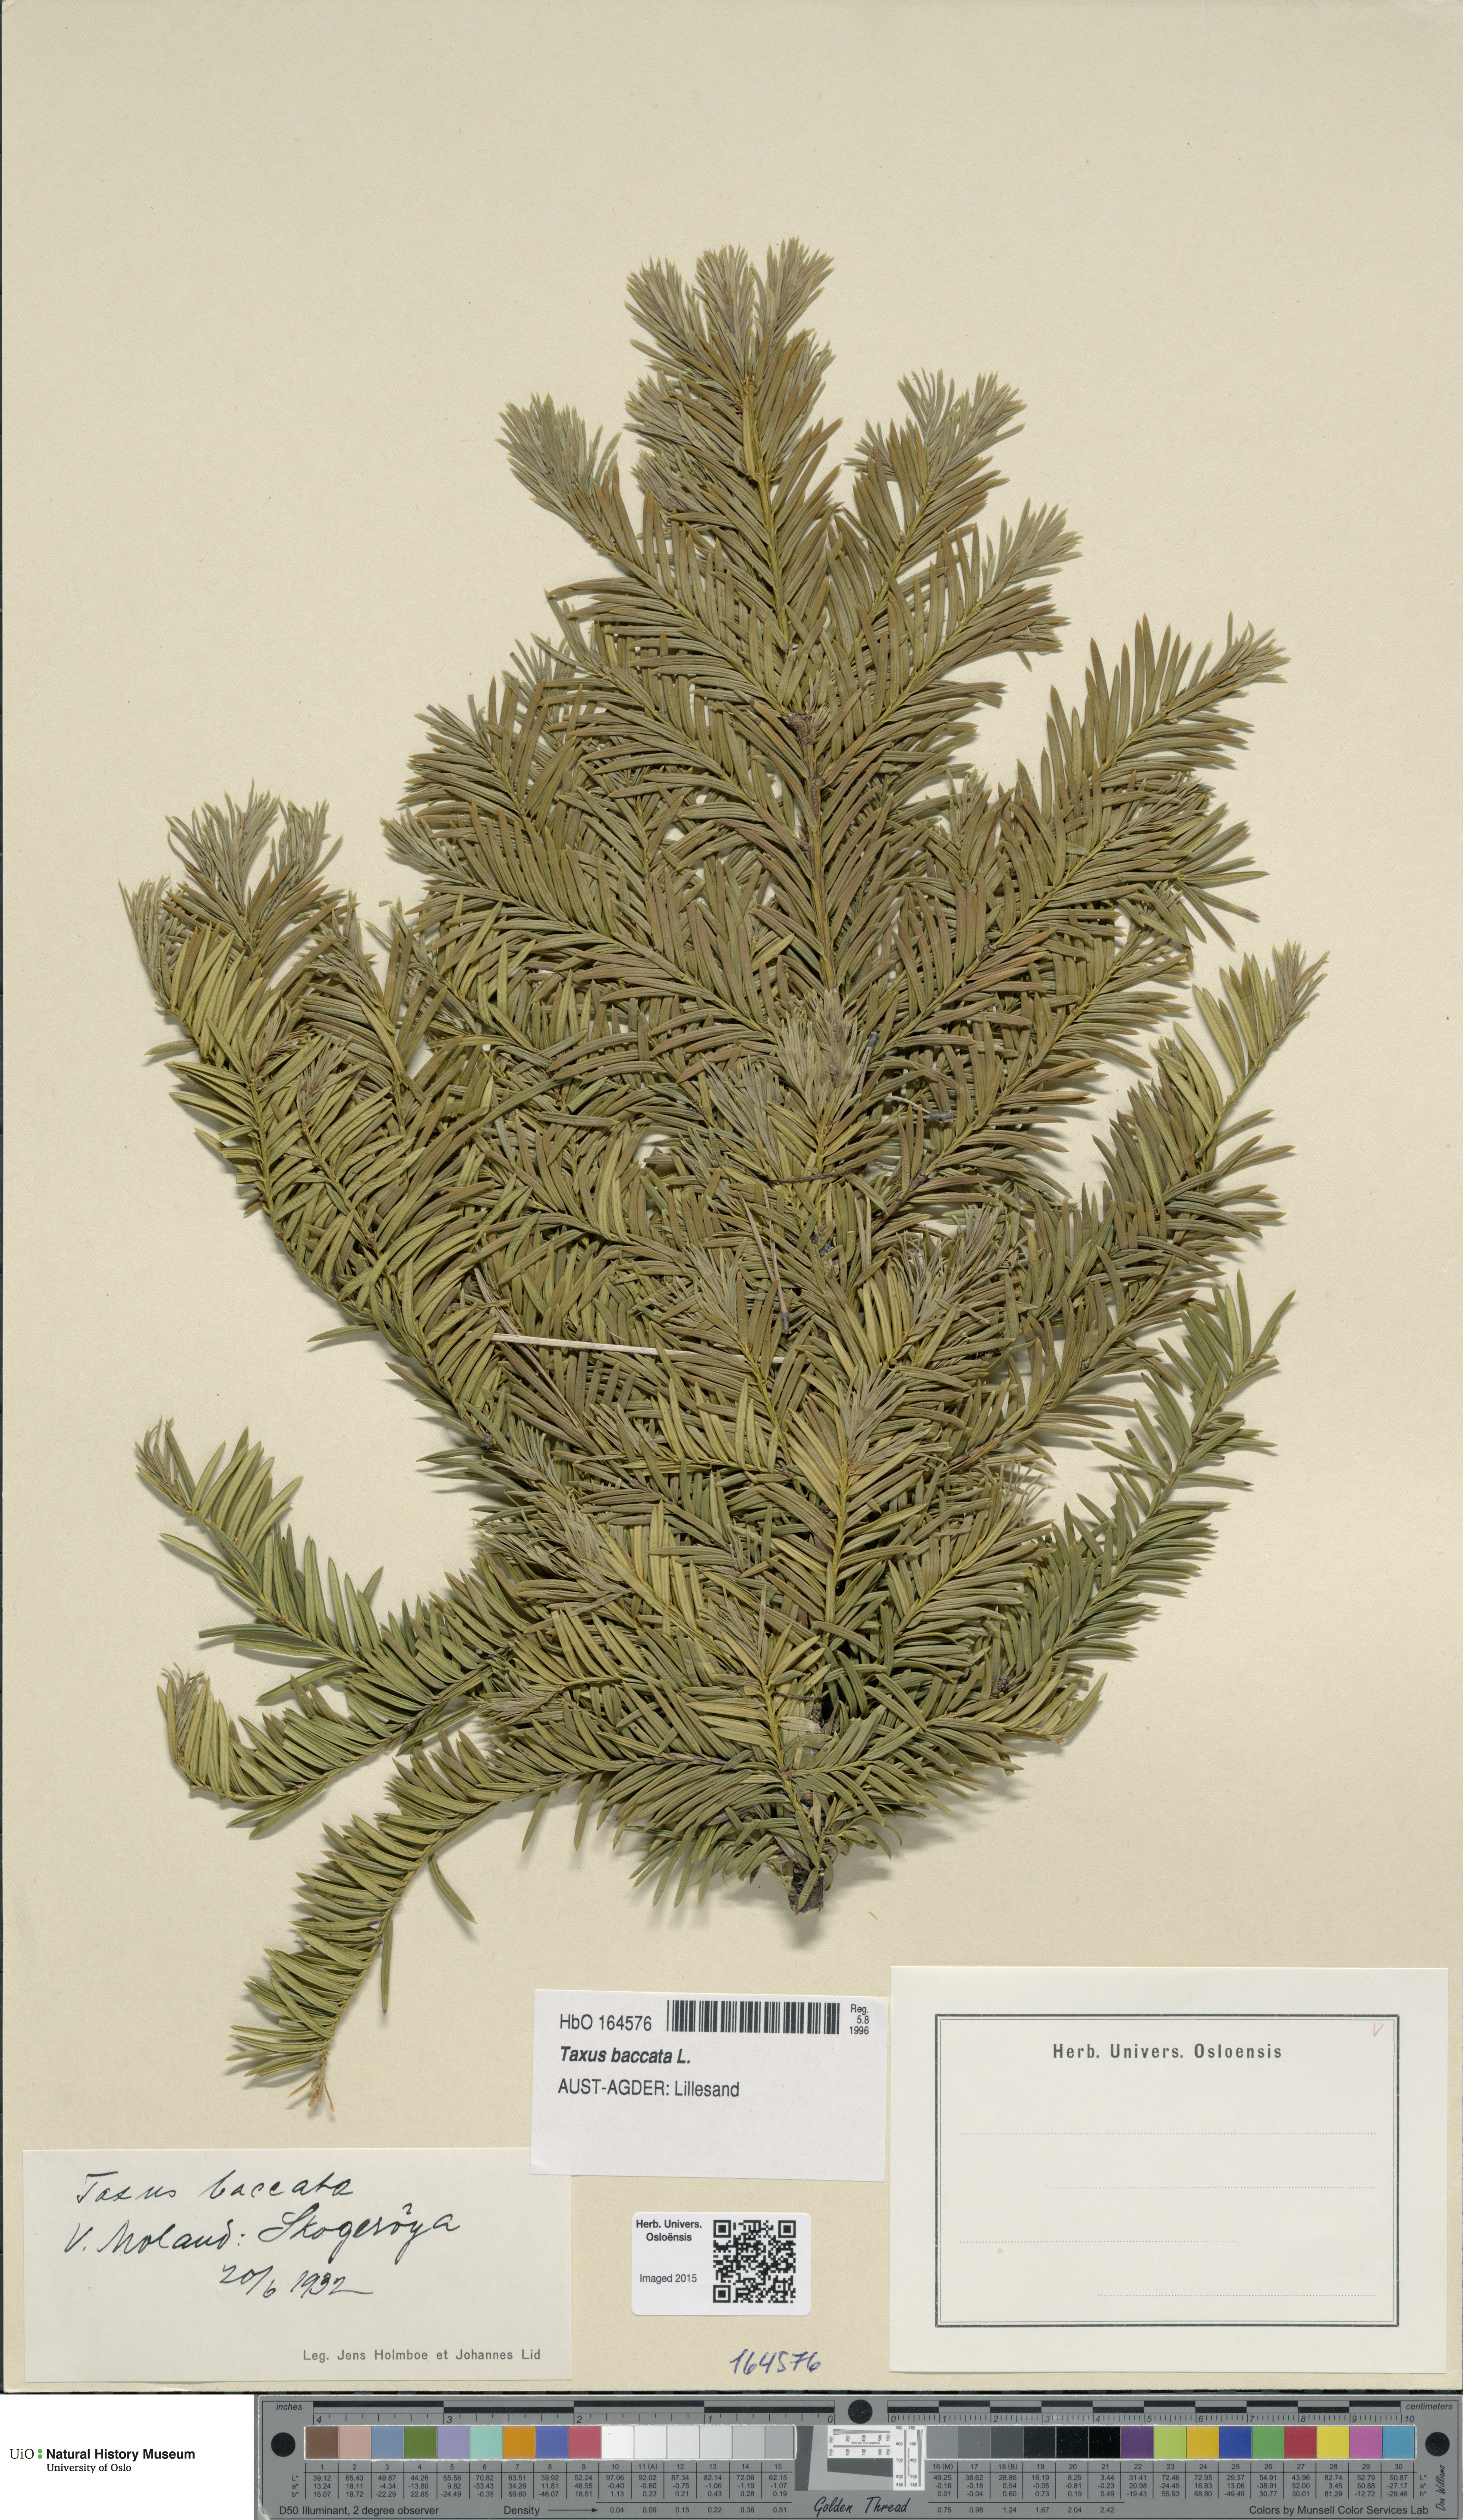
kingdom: Plantae
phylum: Tracheophyta
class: Pinopsida
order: Pinales
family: Taxaceae
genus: Taxus
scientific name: Taxus baccata
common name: Yew
